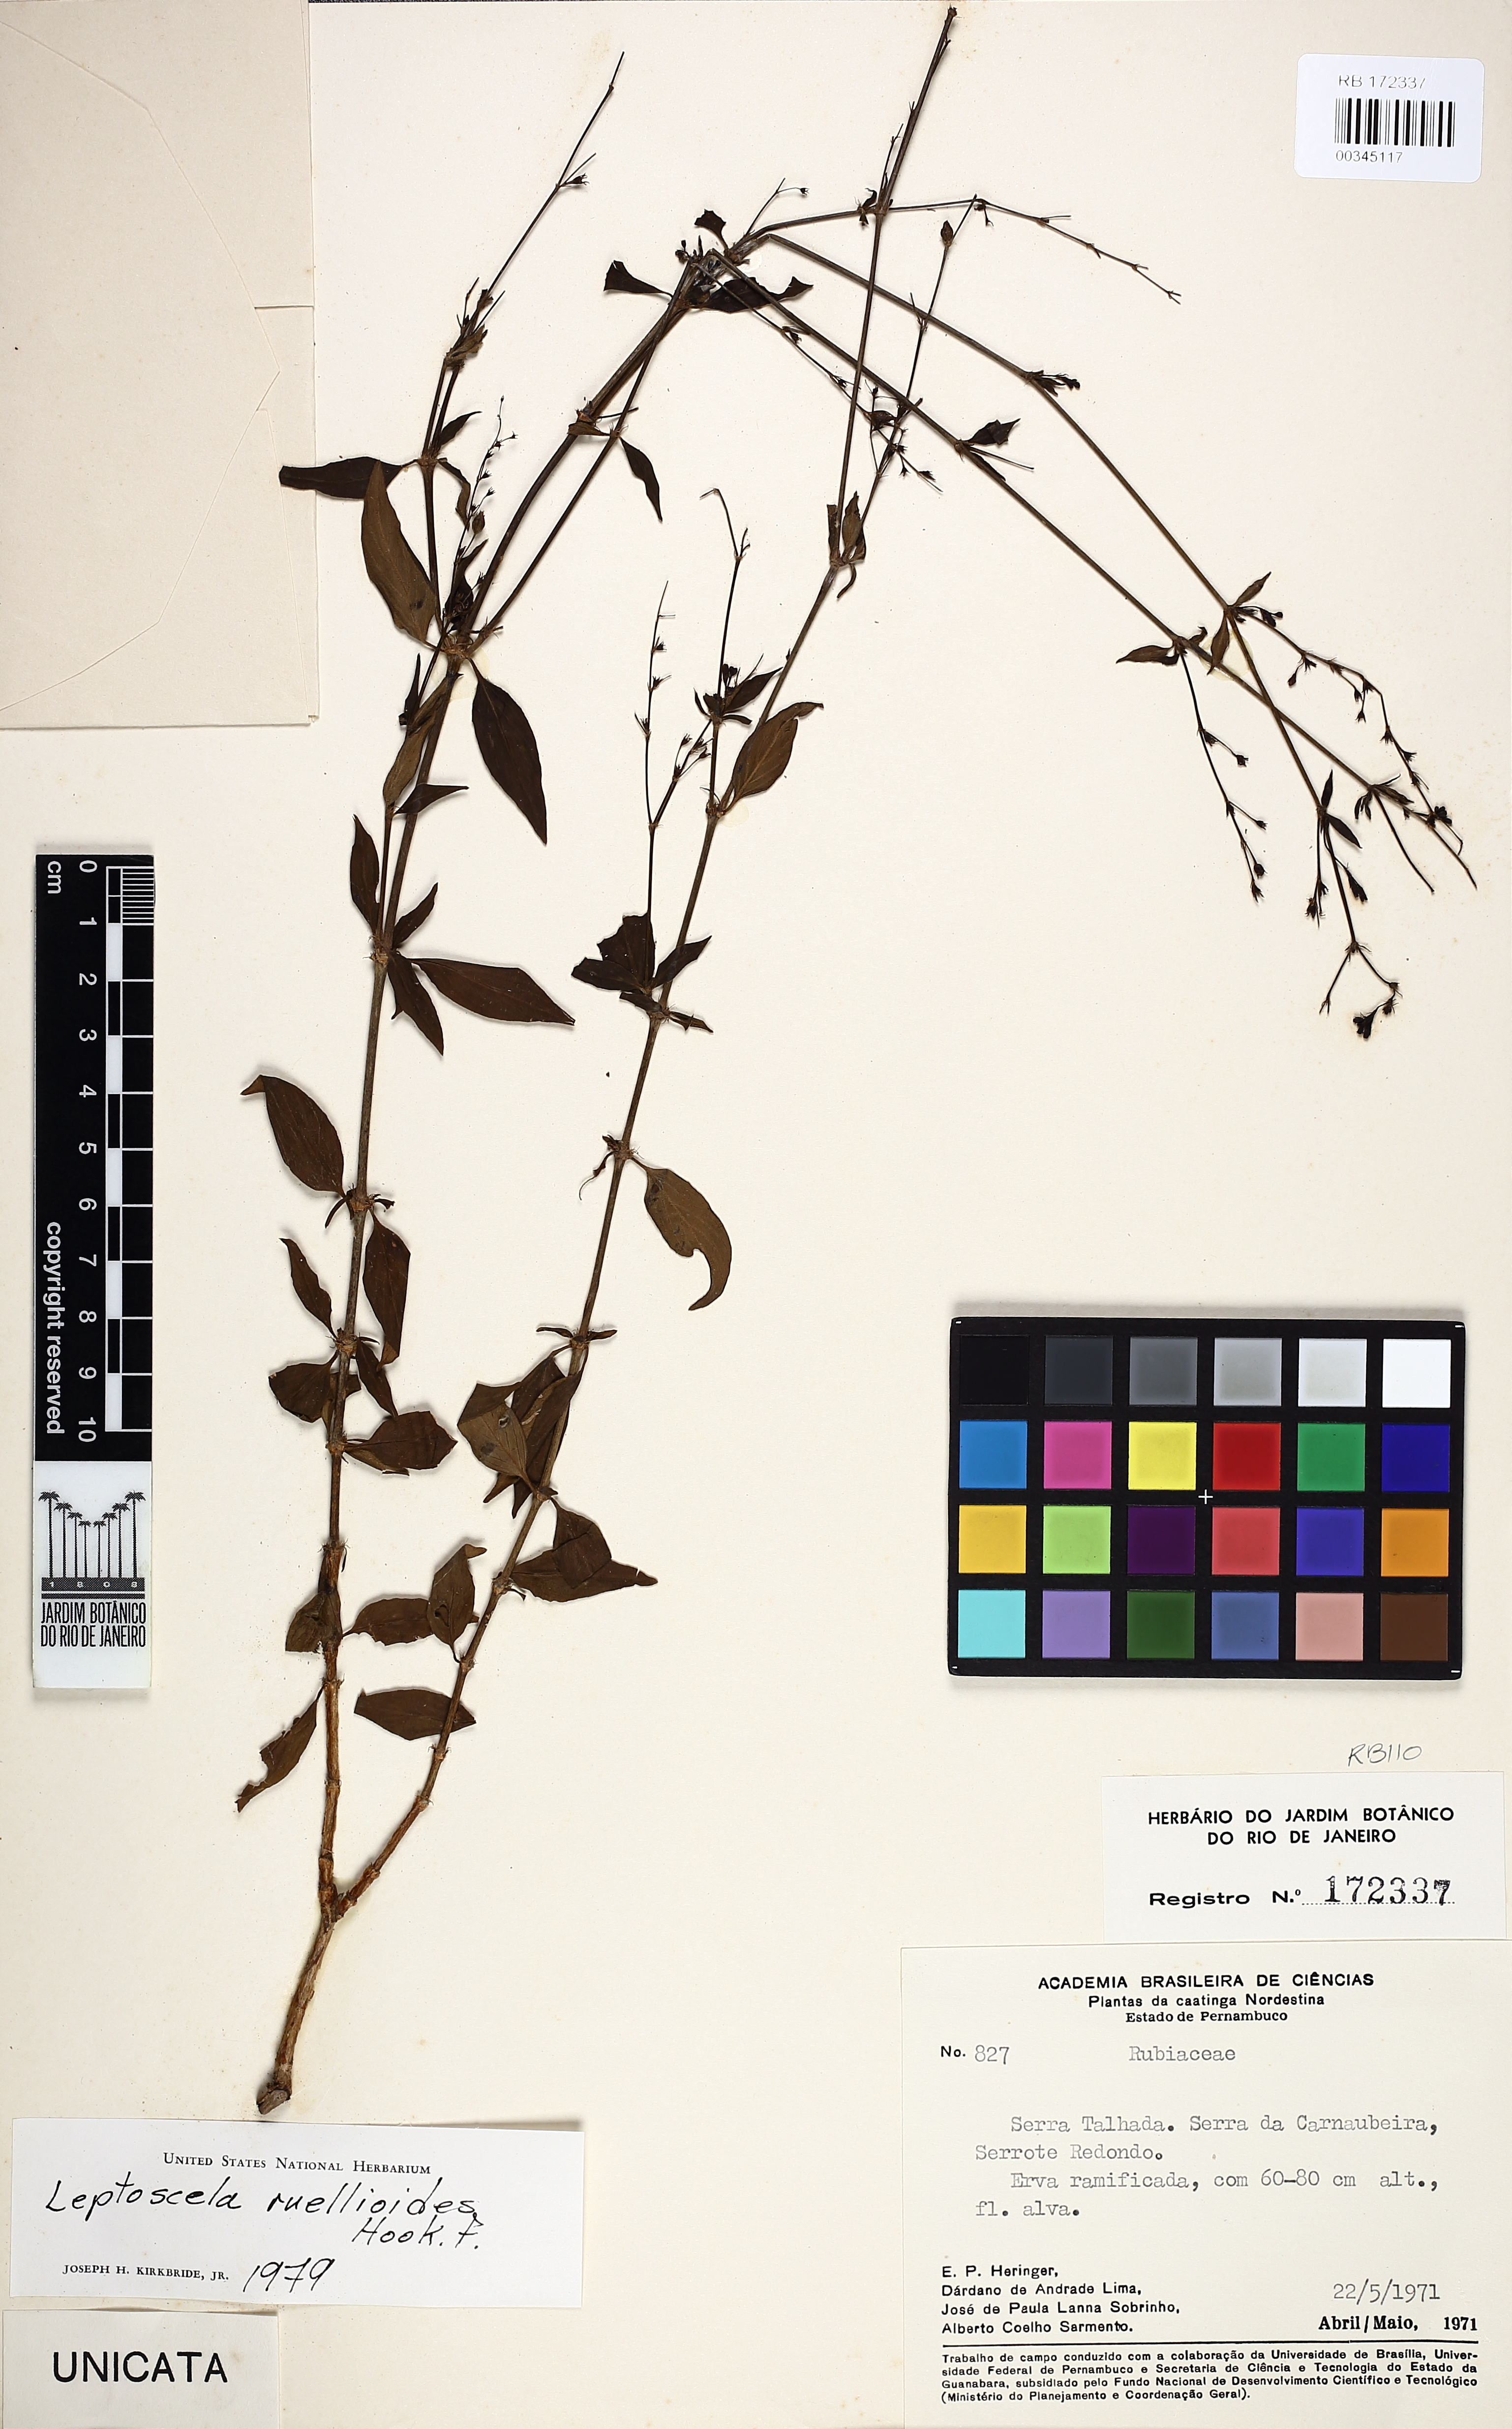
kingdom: Plantae
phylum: Tracheophyta
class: Magnoliopsida
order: Gentianales
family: Rubiaceae
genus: Leptoscela
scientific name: Leptoscela ruellioides
